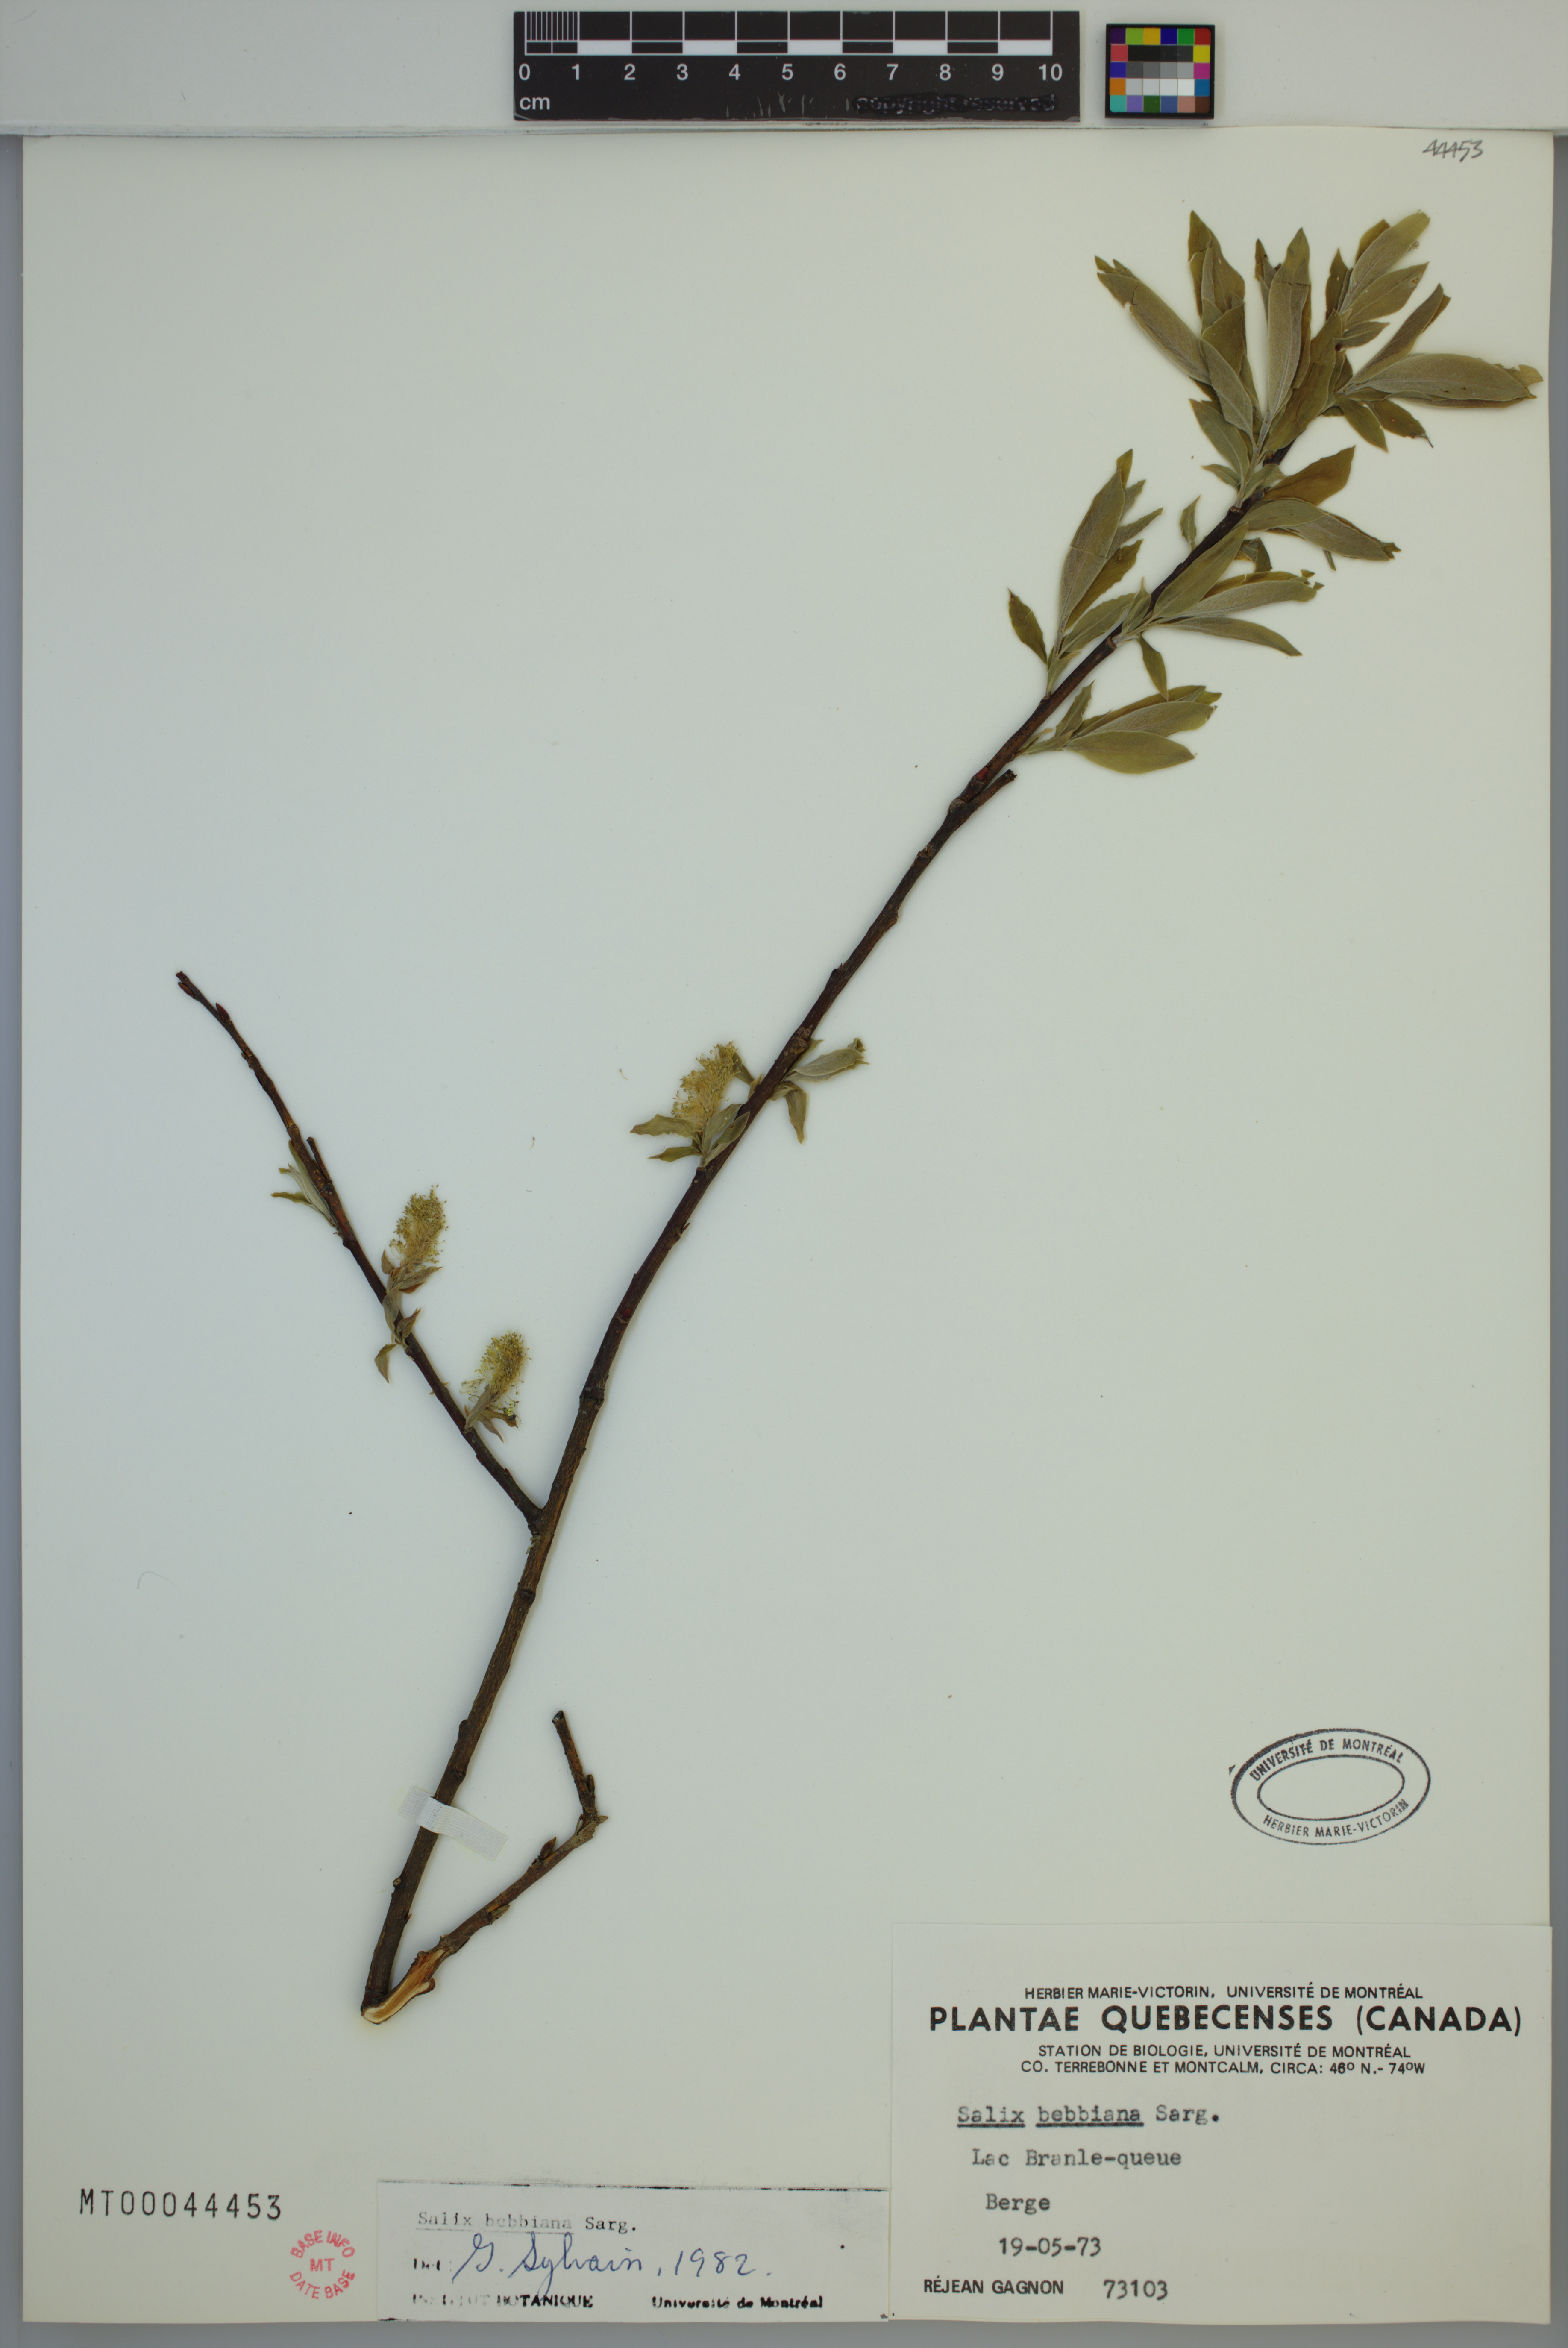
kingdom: Plantae
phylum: Tracheophyta
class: Magnoliopsida
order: Malpighiales
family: Salicaceae
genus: Salix
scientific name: Salix bebbiana
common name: Bebb's willow
